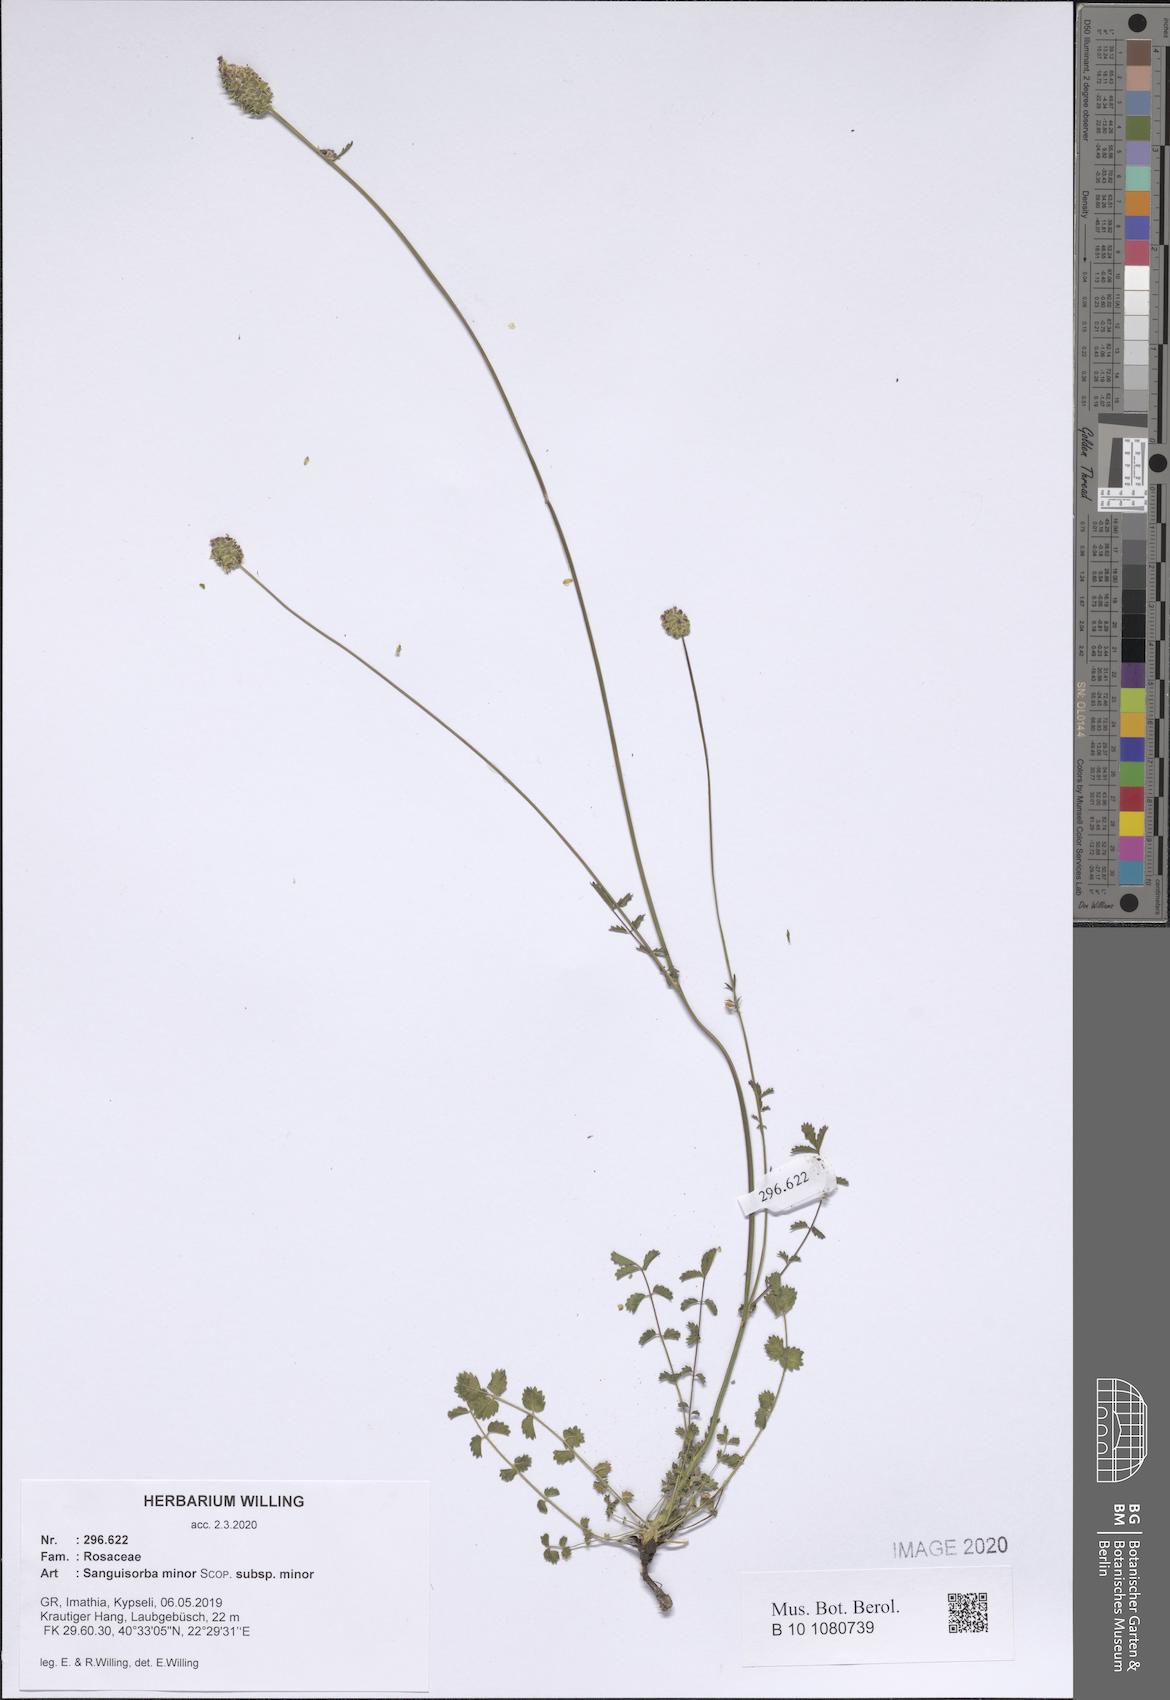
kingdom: Plantae
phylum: Tracheophyta
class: Magnoliopsida
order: Rosales
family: Rosaceae
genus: Poterium
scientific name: Poterium sanguisorba
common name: Salad burnet
